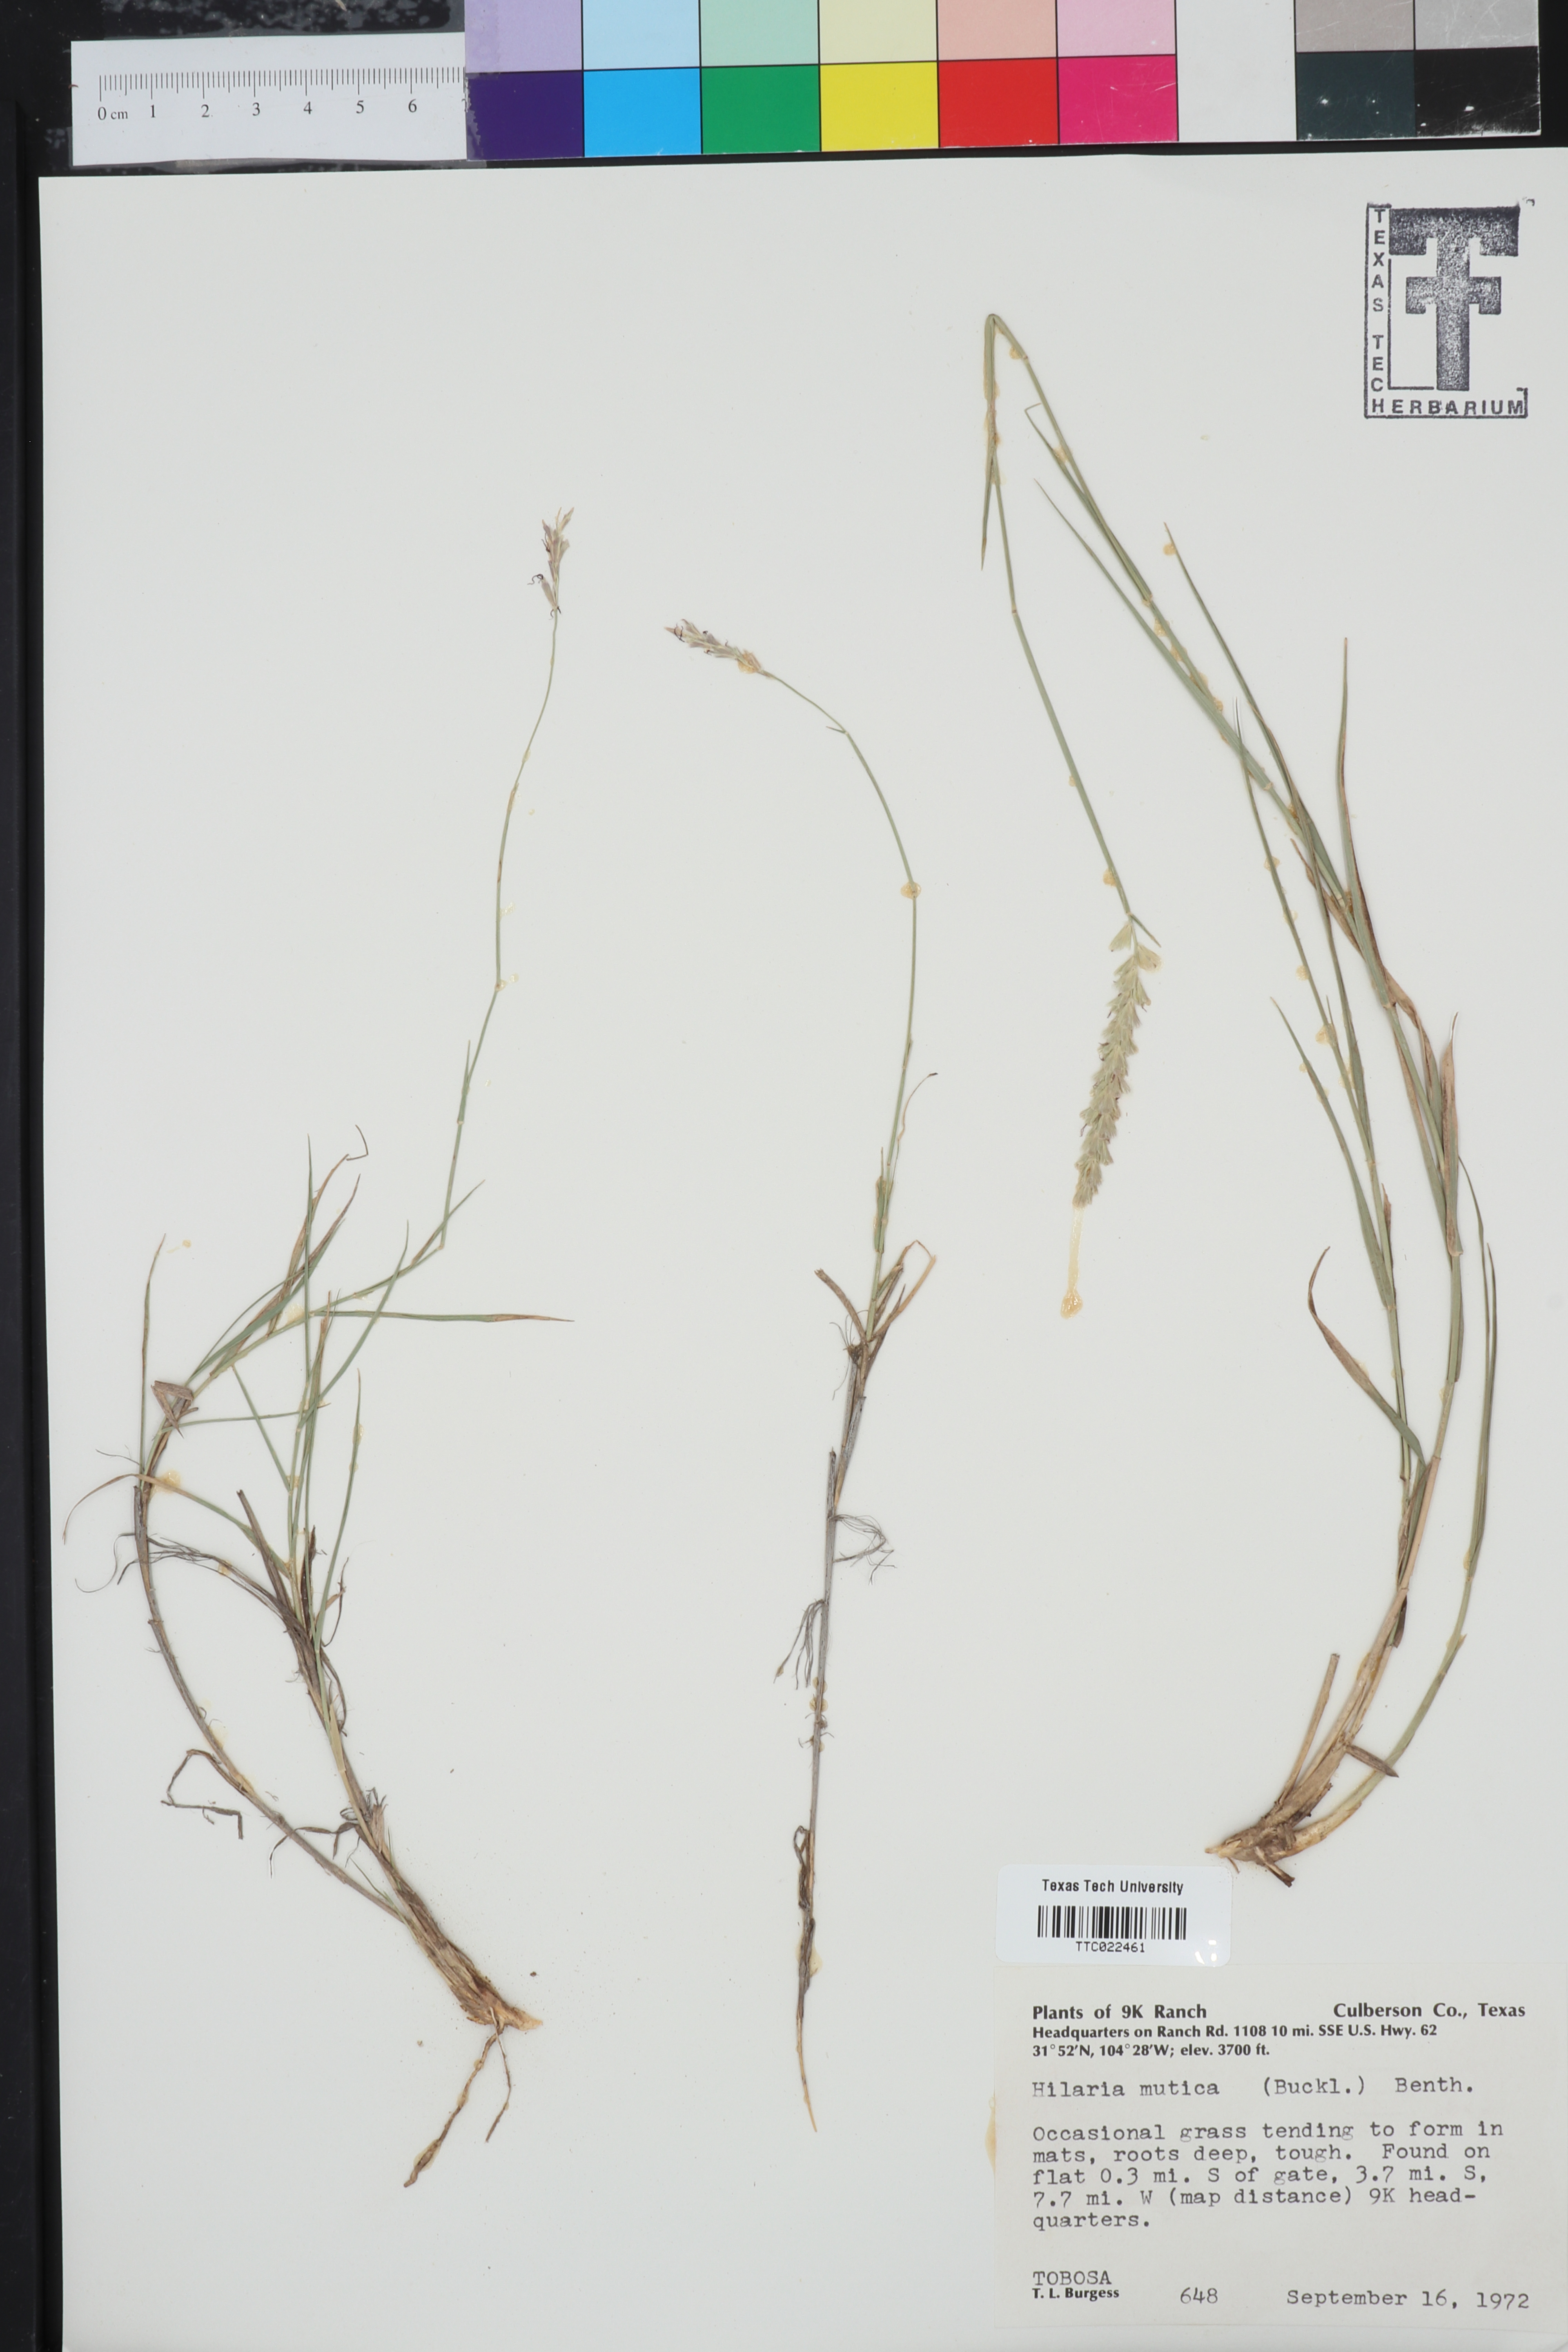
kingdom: Plantae
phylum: Tracheophyta
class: Liliopsida
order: Poales
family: Poaceae
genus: Hilaria
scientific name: Hilaria mutica
